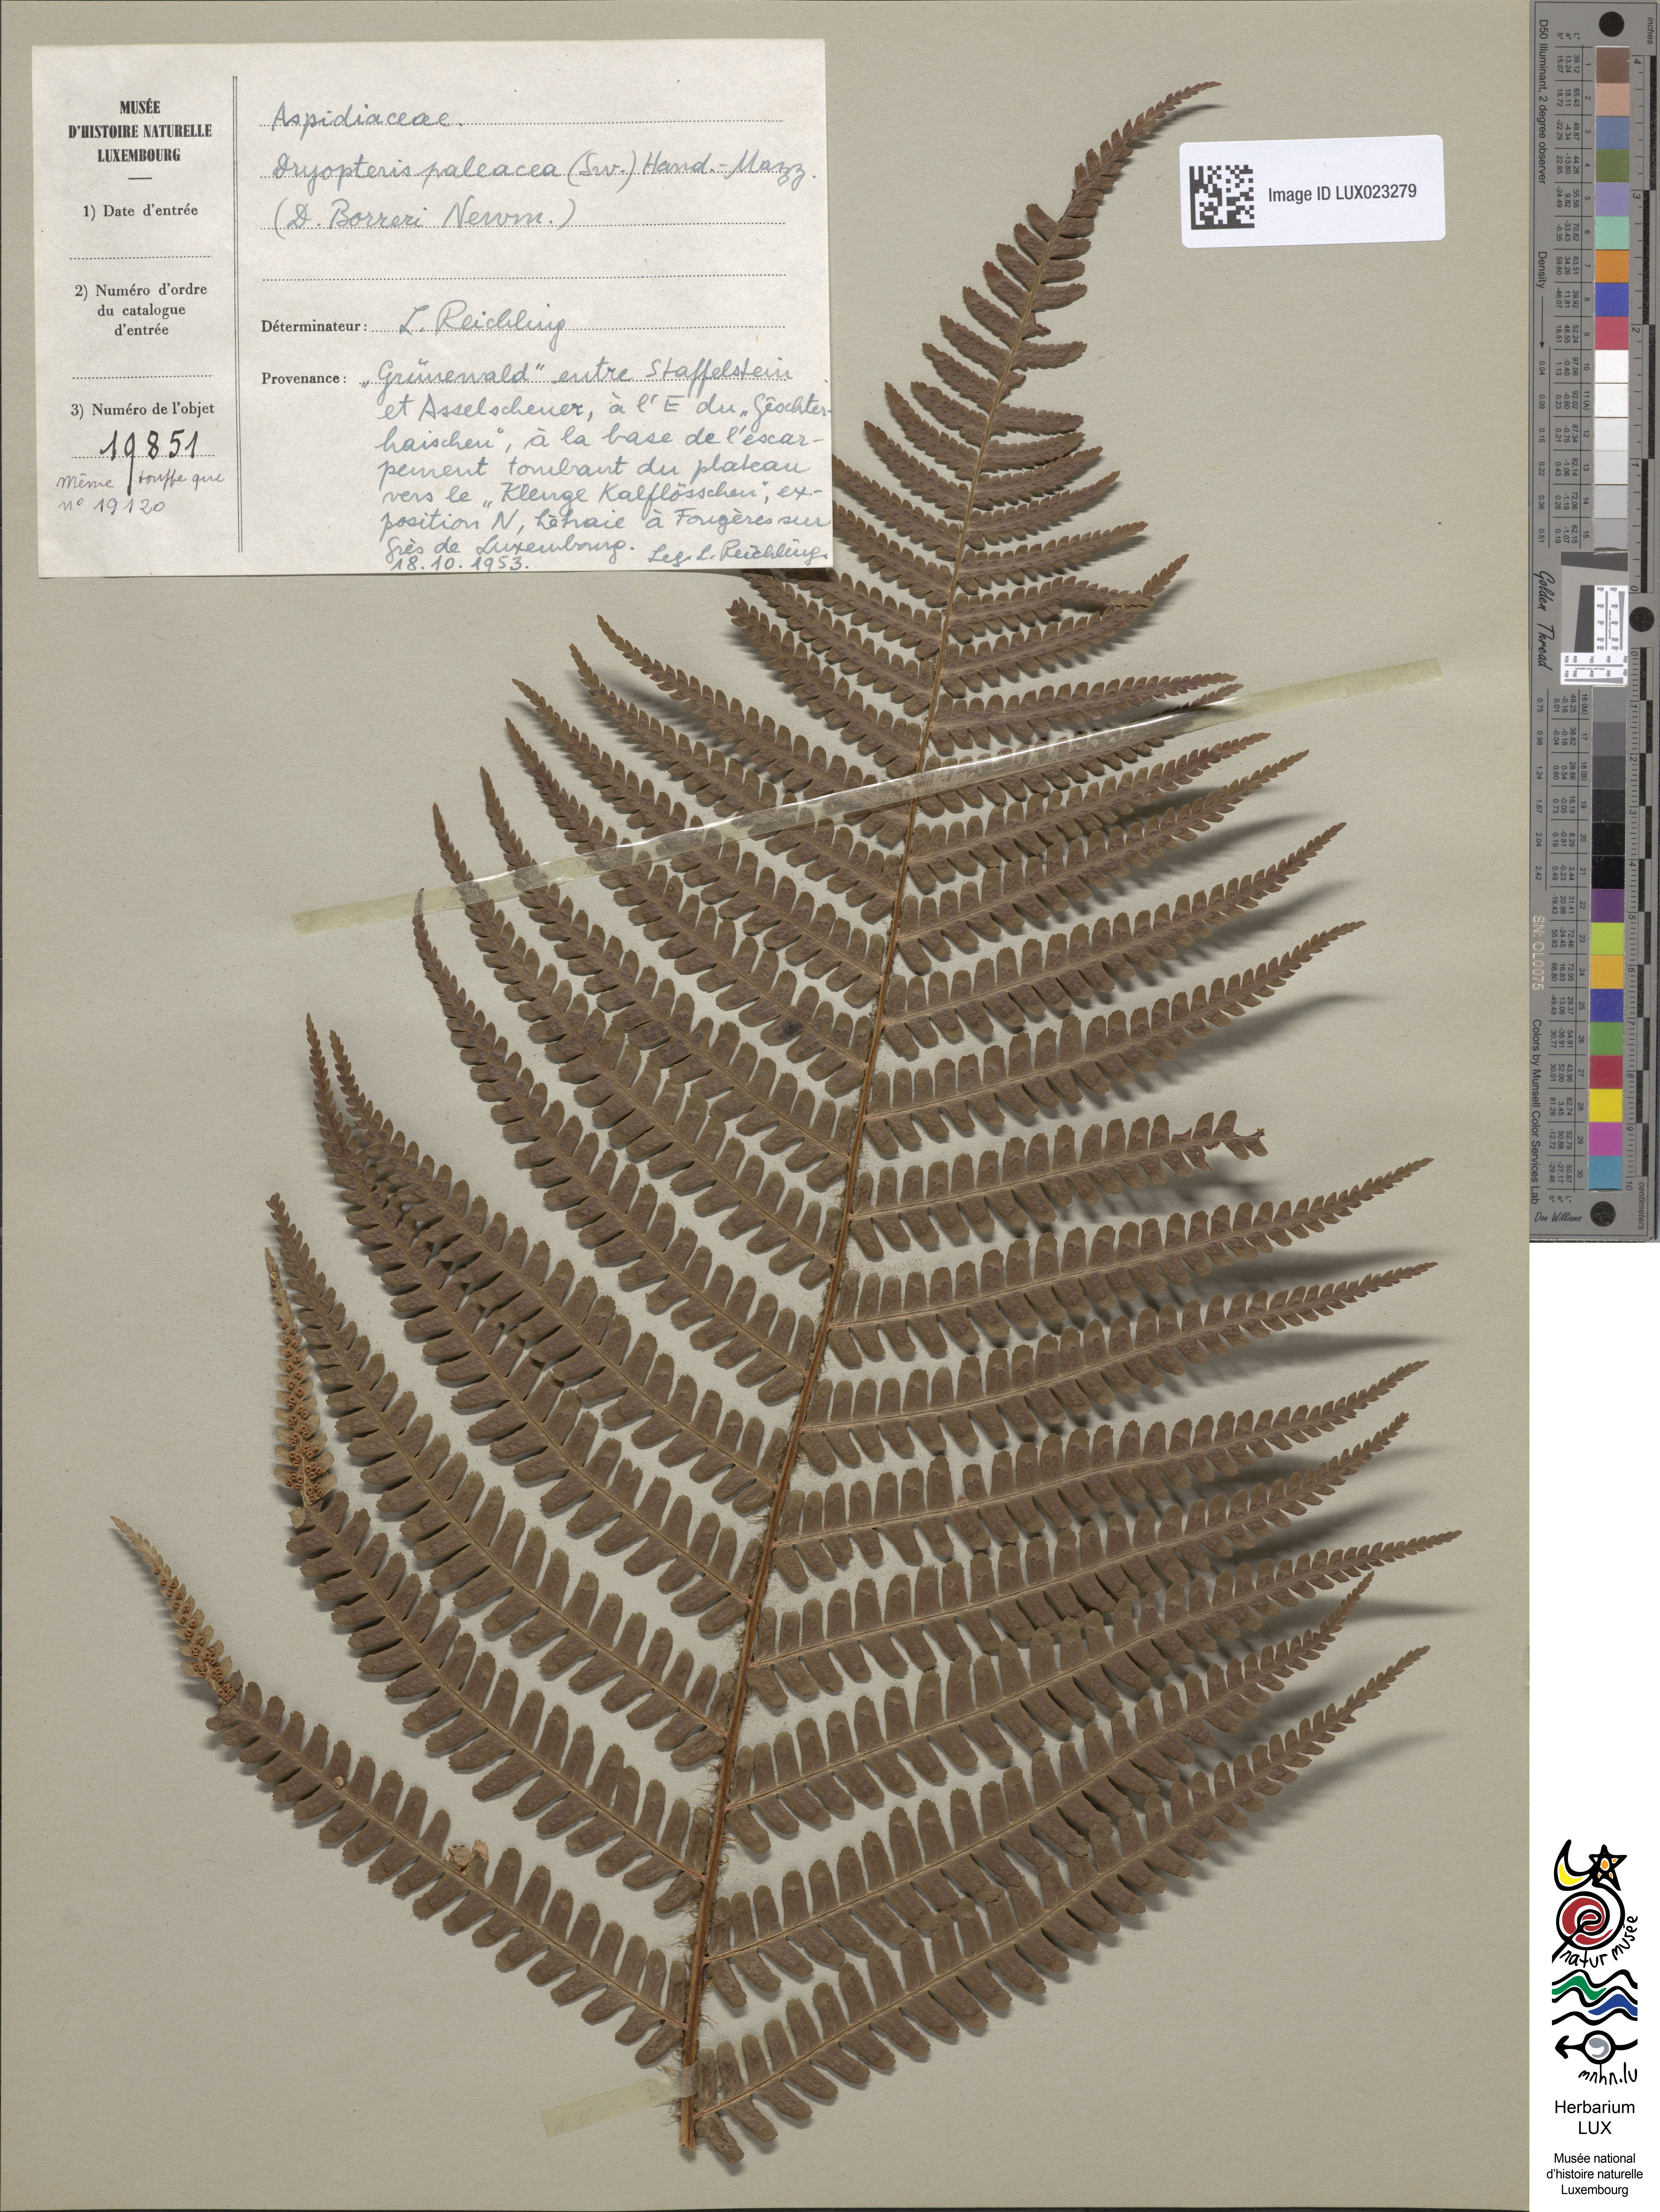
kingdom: Plantae
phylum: Tracheophyta
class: Polypodiopsida
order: Polypodiales
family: Dryopteridaceae
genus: Dryopteris
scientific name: Dryopteris borreri
